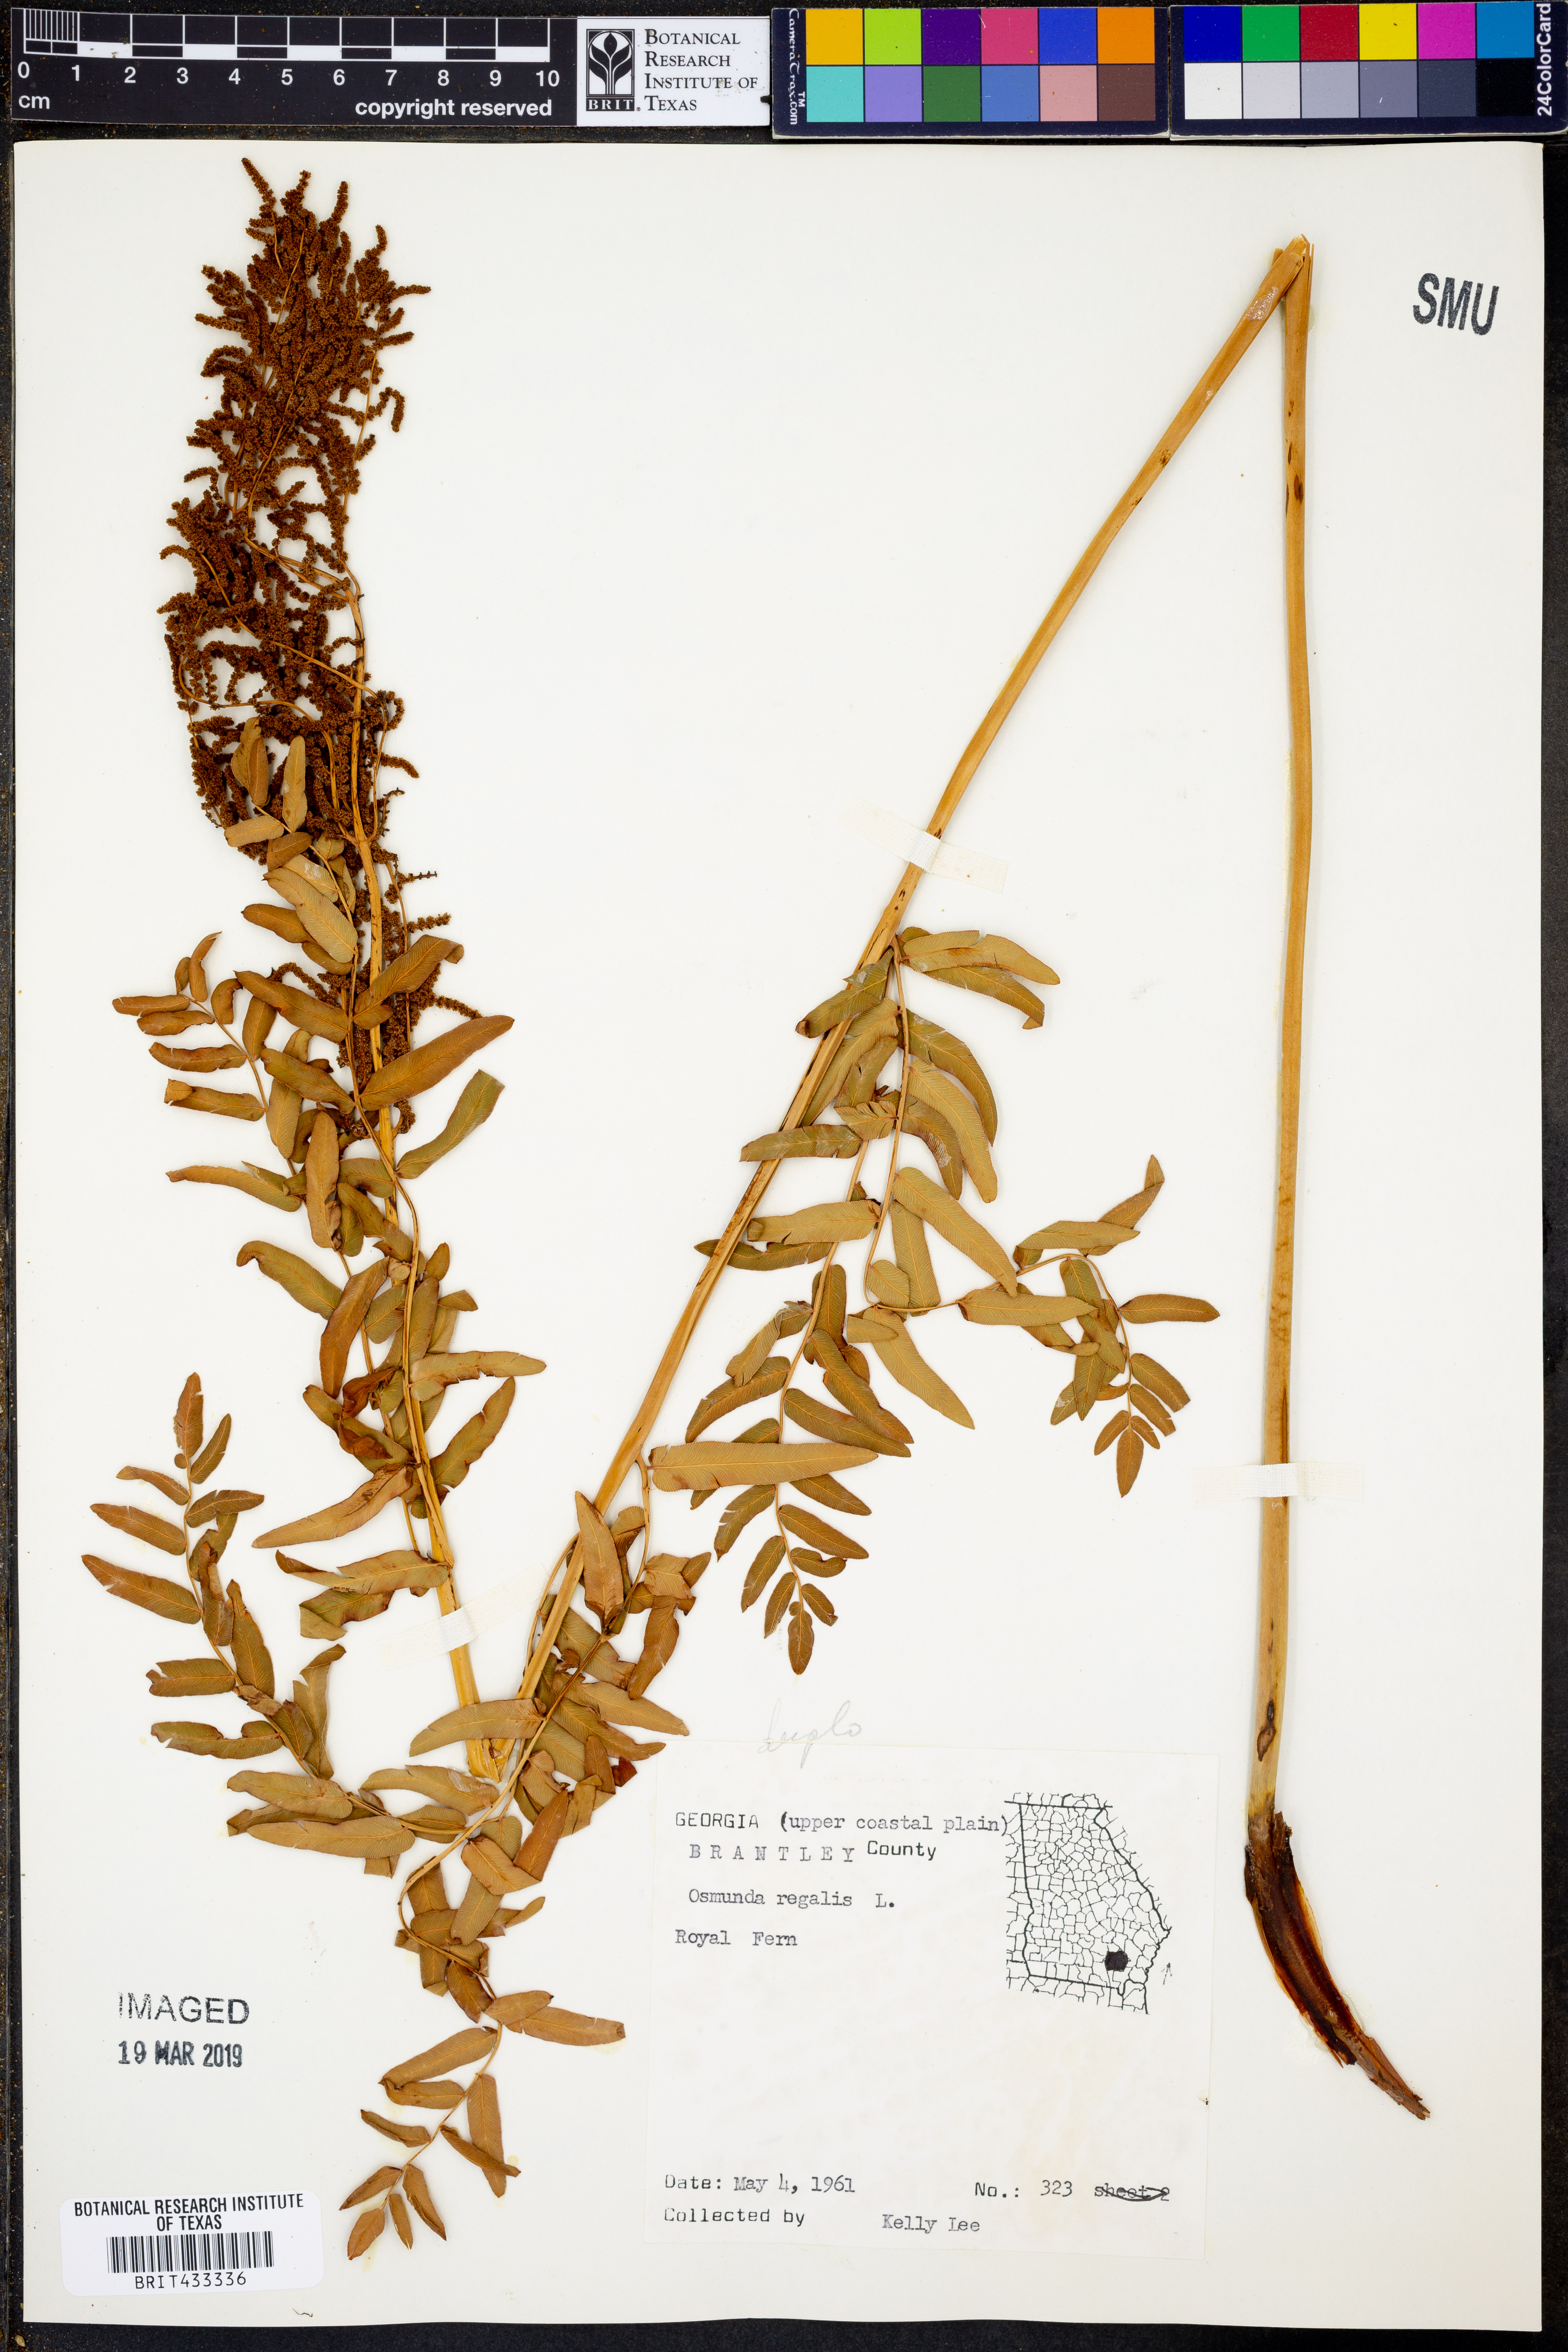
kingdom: Plantae
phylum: Tracheophyta
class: Polypodiopsida
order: Osmundales
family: Osmundaceae
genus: Osmunda
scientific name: Osmunda regalis
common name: Royal fern
